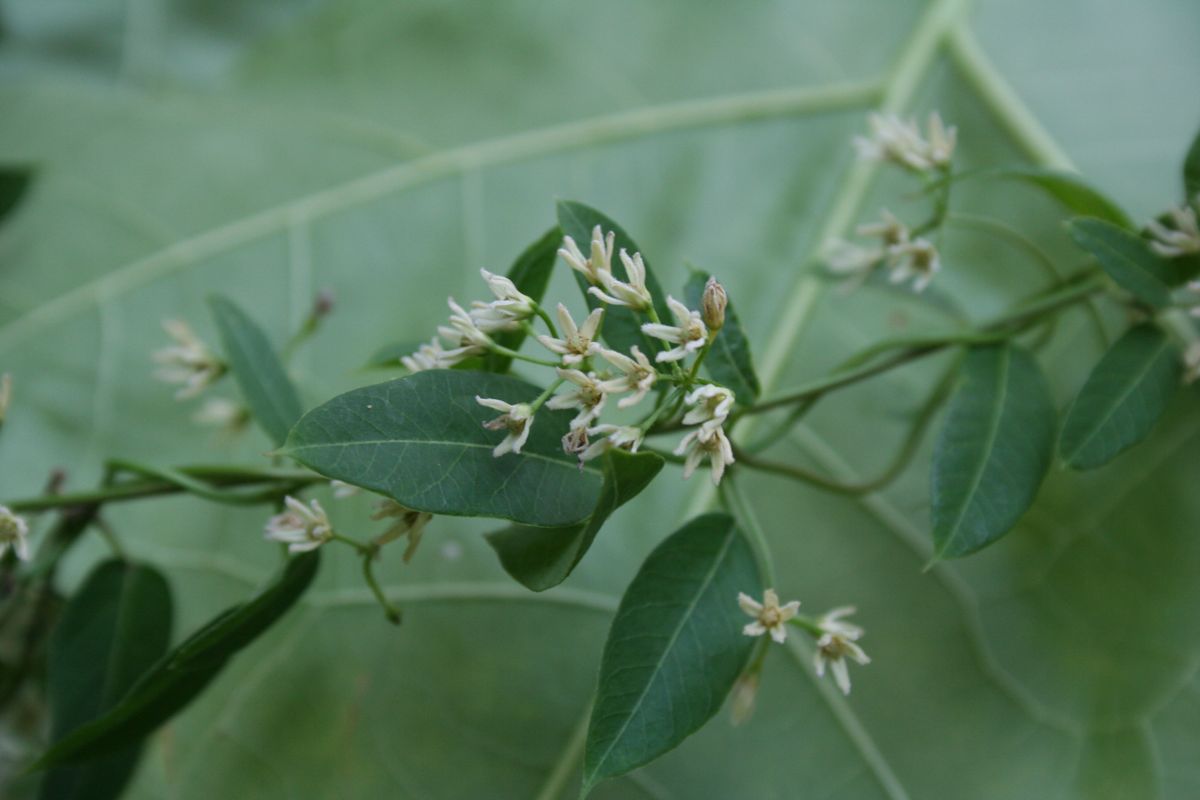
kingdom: Plantae
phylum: Tracheophyta
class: Magnoliopsida
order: Gentianales
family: Apocynaceae
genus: Metastelma
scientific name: Metastelma schlechtendalii
